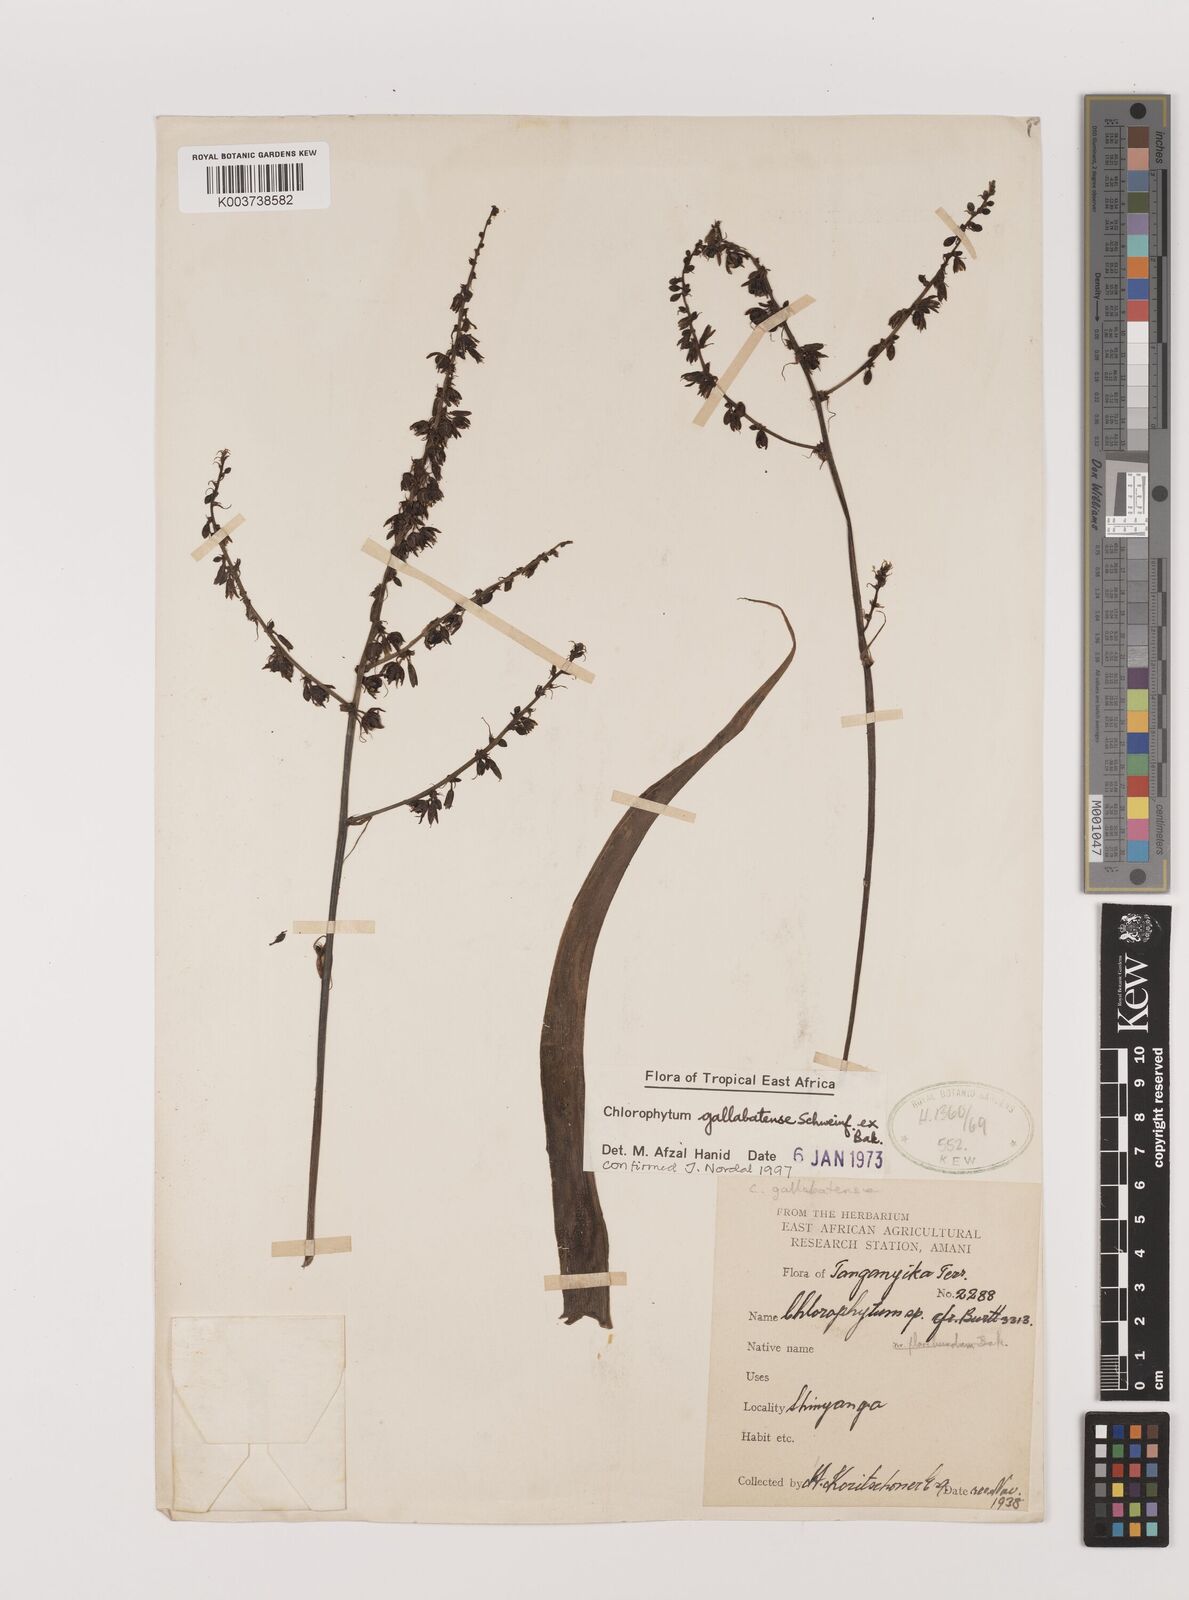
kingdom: Plantae
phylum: Tracheophyta
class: Liliopsida
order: Asparagales
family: Asparagaceae
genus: Chlorophytum
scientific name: Chlorophytum gallabatense
